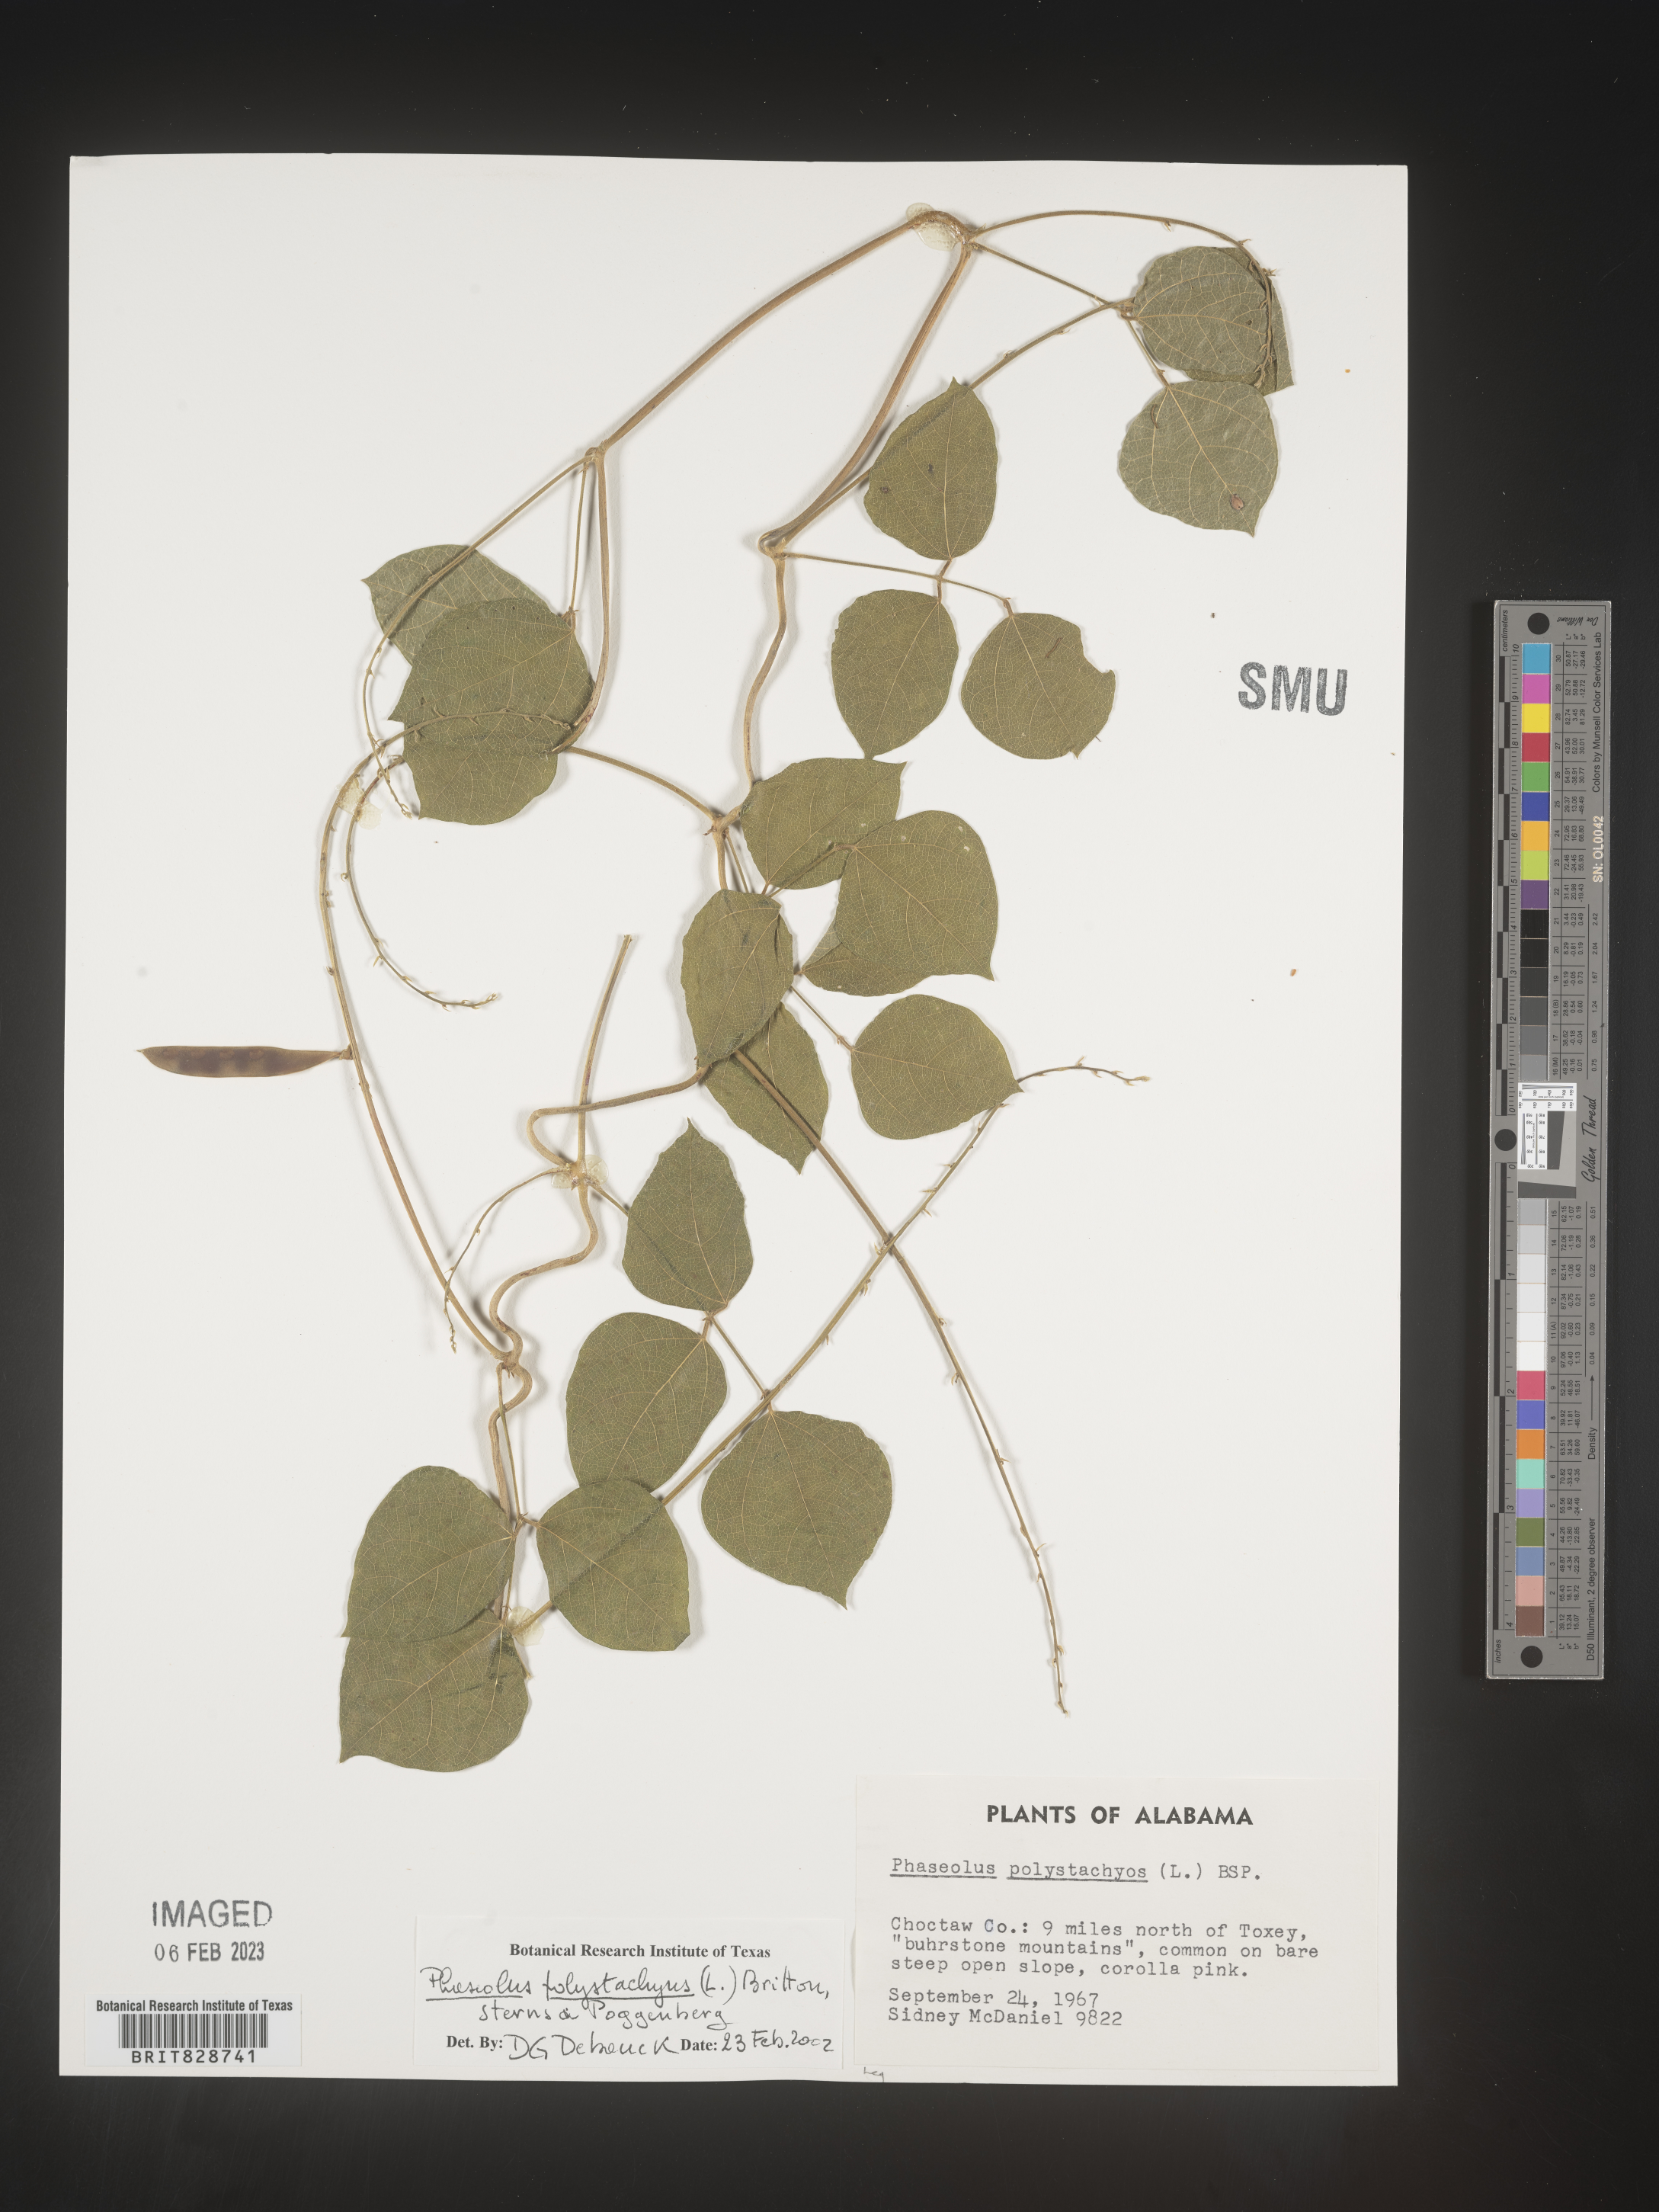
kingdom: Plantae
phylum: Tracheophyta
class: Magnoliopsida
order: Fabales
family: Fabaceae
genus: Phaseolus
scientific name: Phaseolus polystachios
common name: Thicket bean
